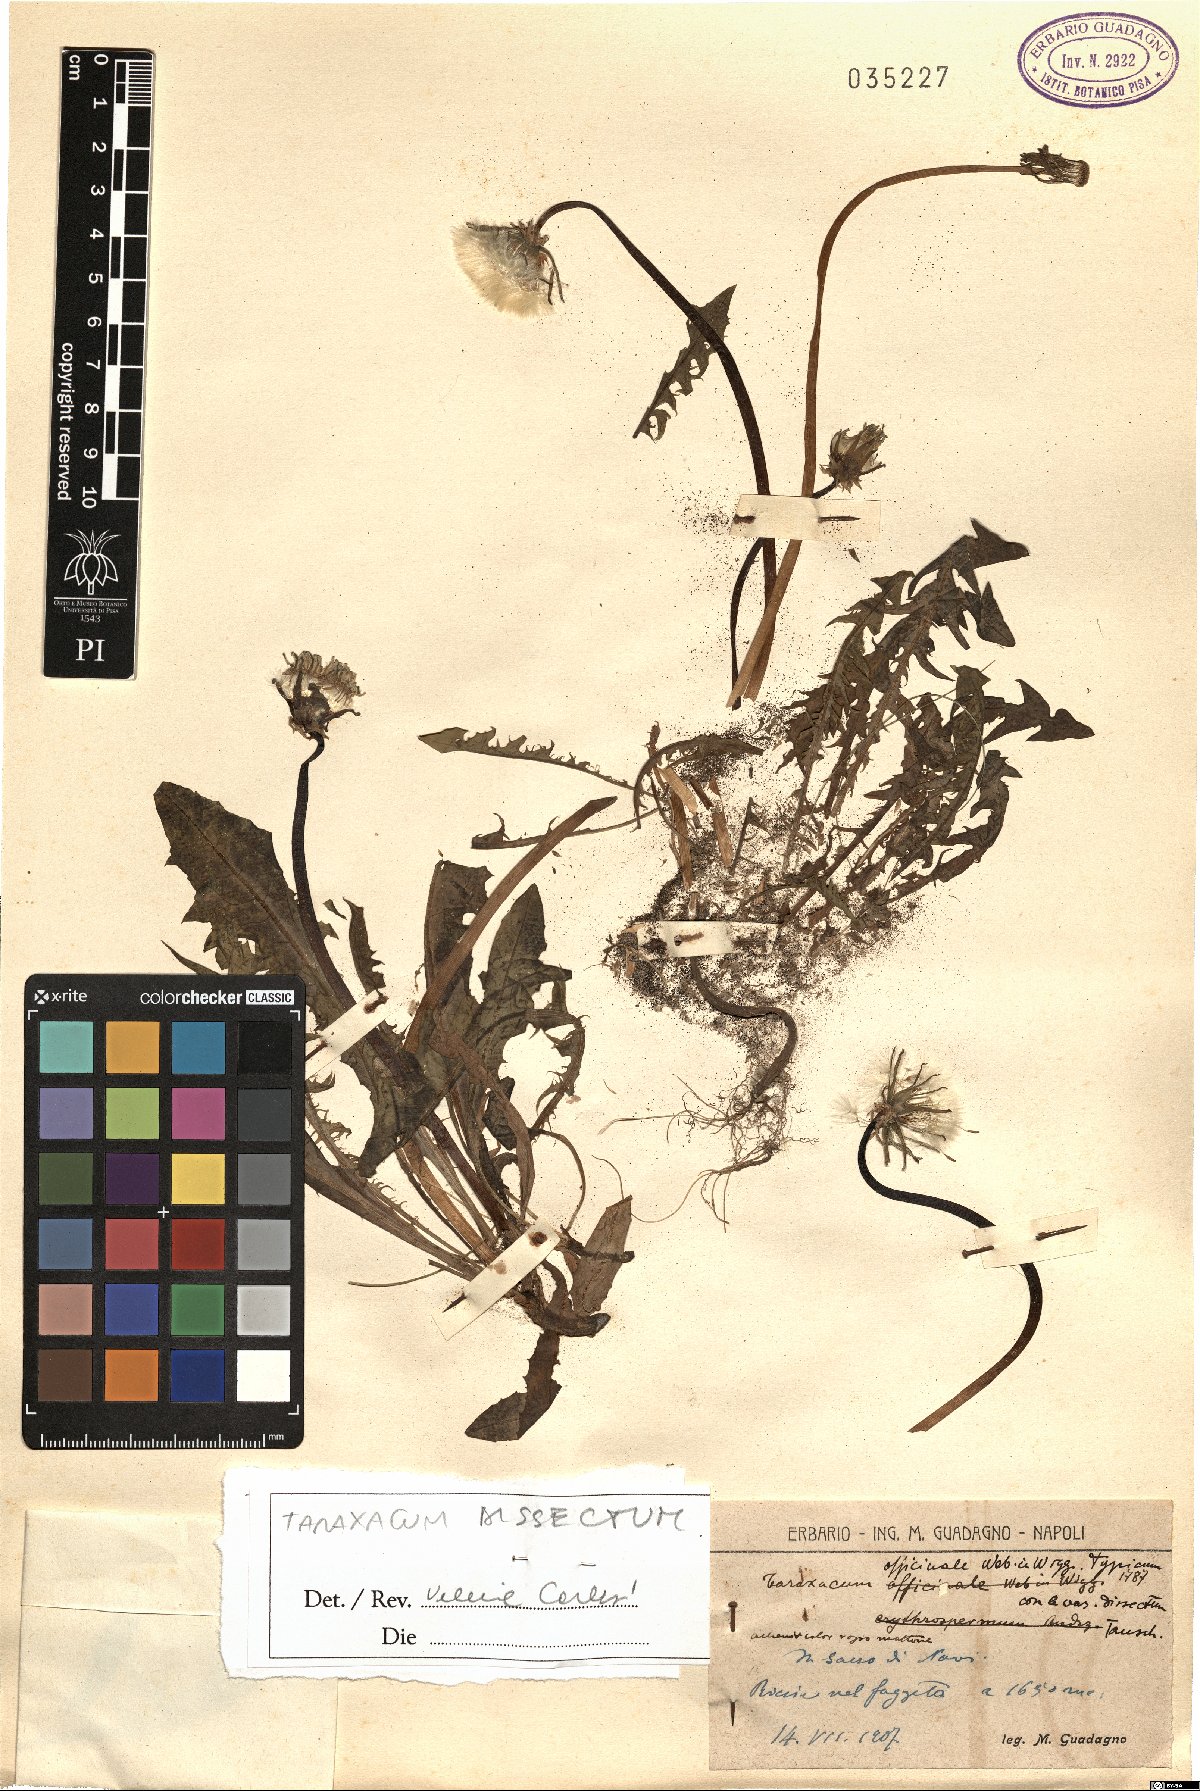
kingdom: Plantae
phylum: Tracheophyta
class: Magnoliopsida
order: Asterales
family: Asteraceae
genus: Taraxacum
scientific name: Taraxacum dissectum
